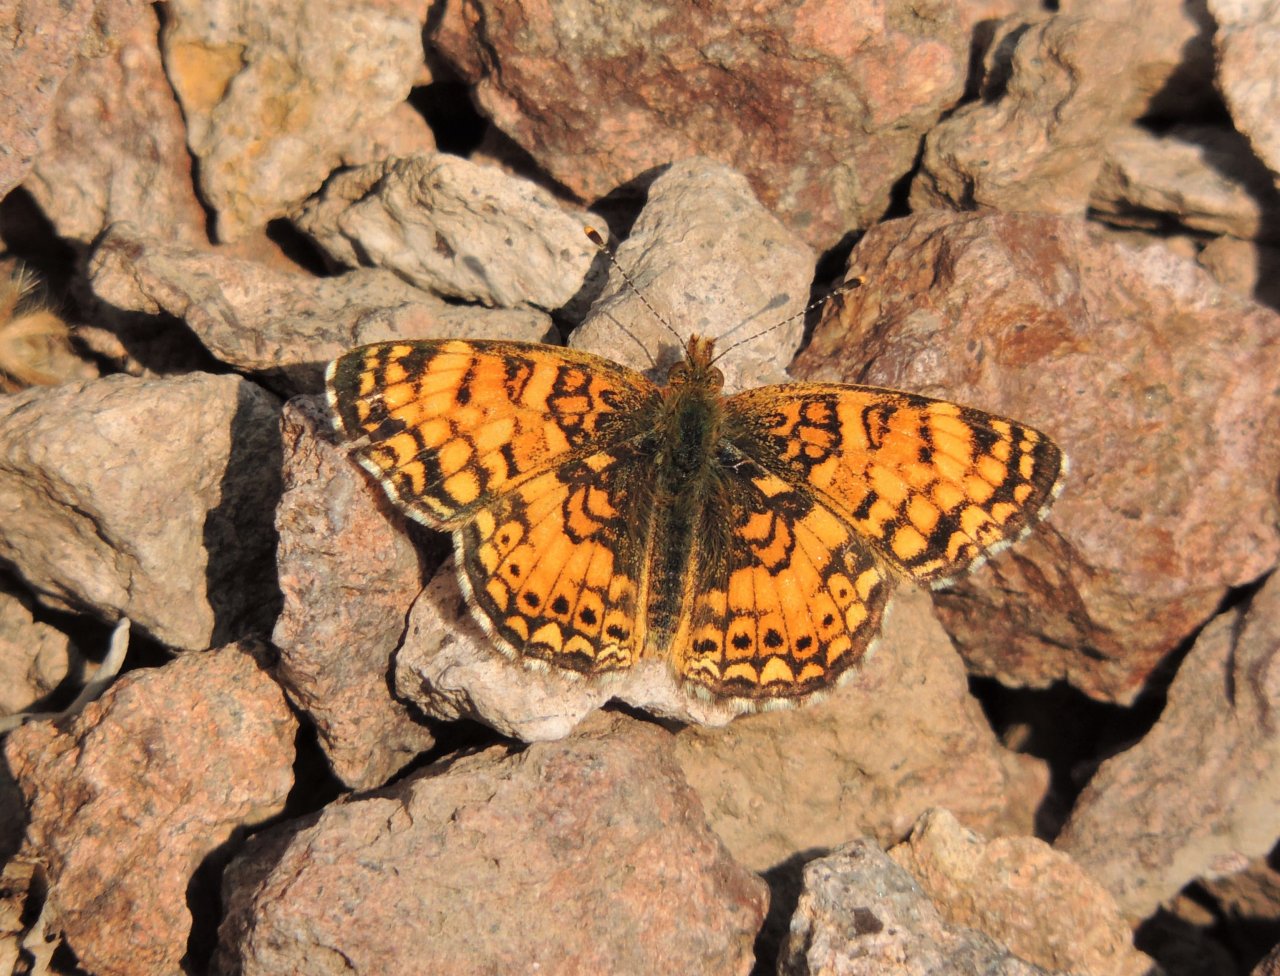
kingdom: Animalia
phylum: Arthropoda
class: Insecta
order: Lepidoptera
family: Nymphalidae
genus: Eresia
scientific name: Eresia aveyrona
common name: Mylitta Crescent
